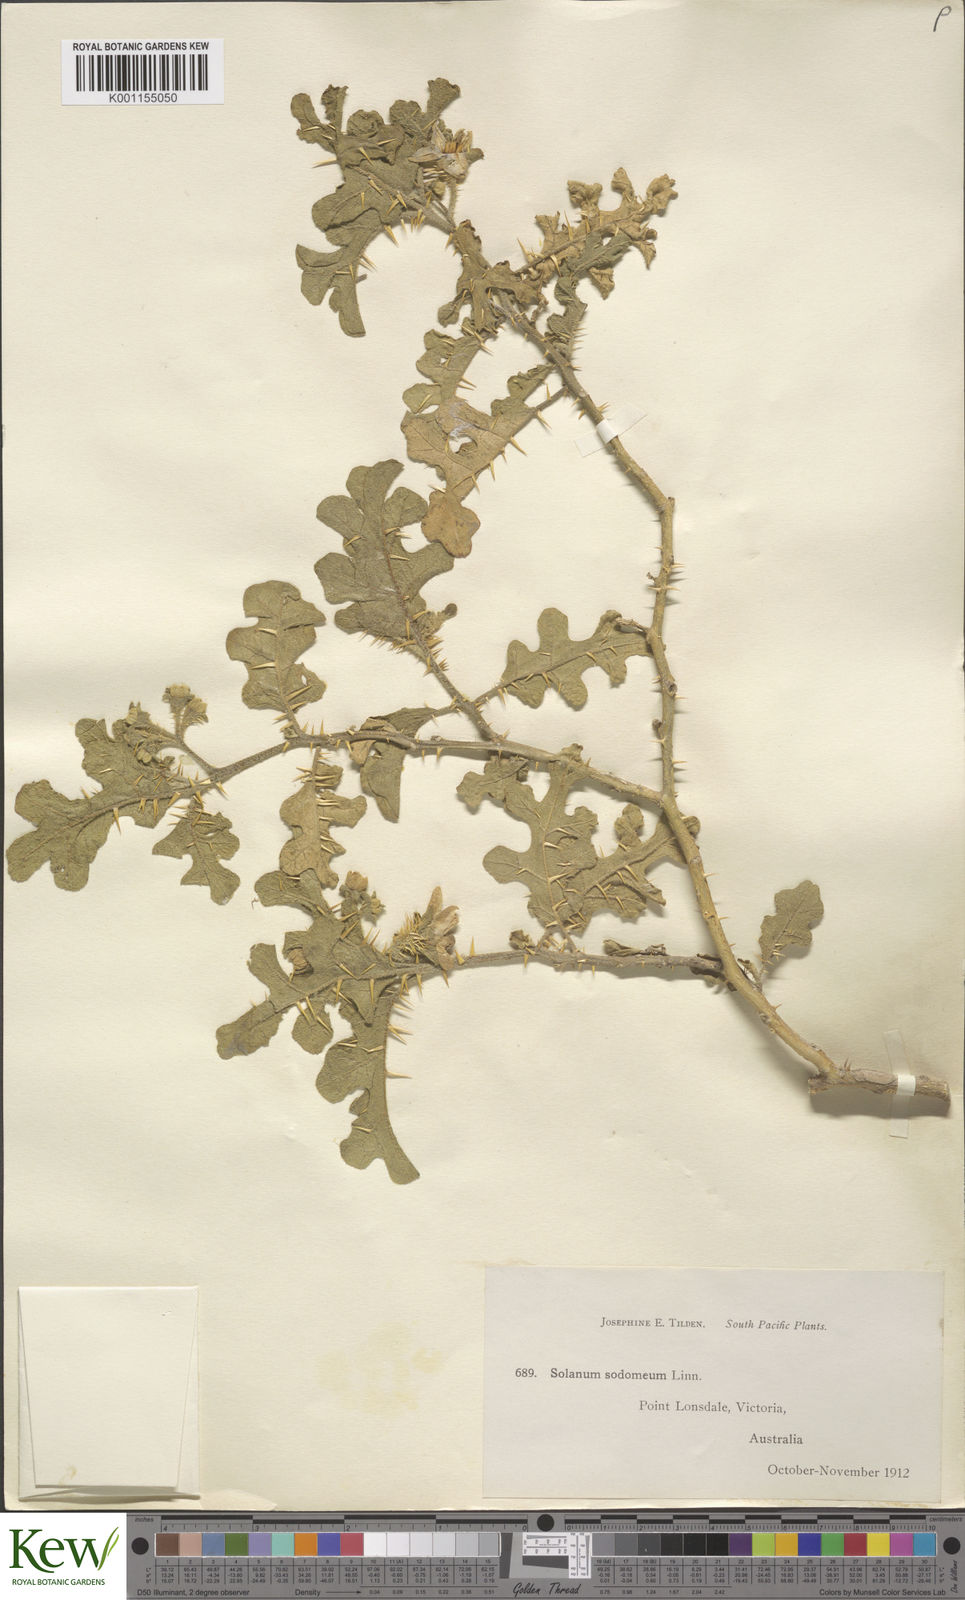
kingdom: Plantae
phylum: Tracheophyta
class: Magnoliopsida
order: Solanales
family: Solanaceae
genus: Solanum
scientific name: Solanum anguivi
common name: Forest bitterberry
